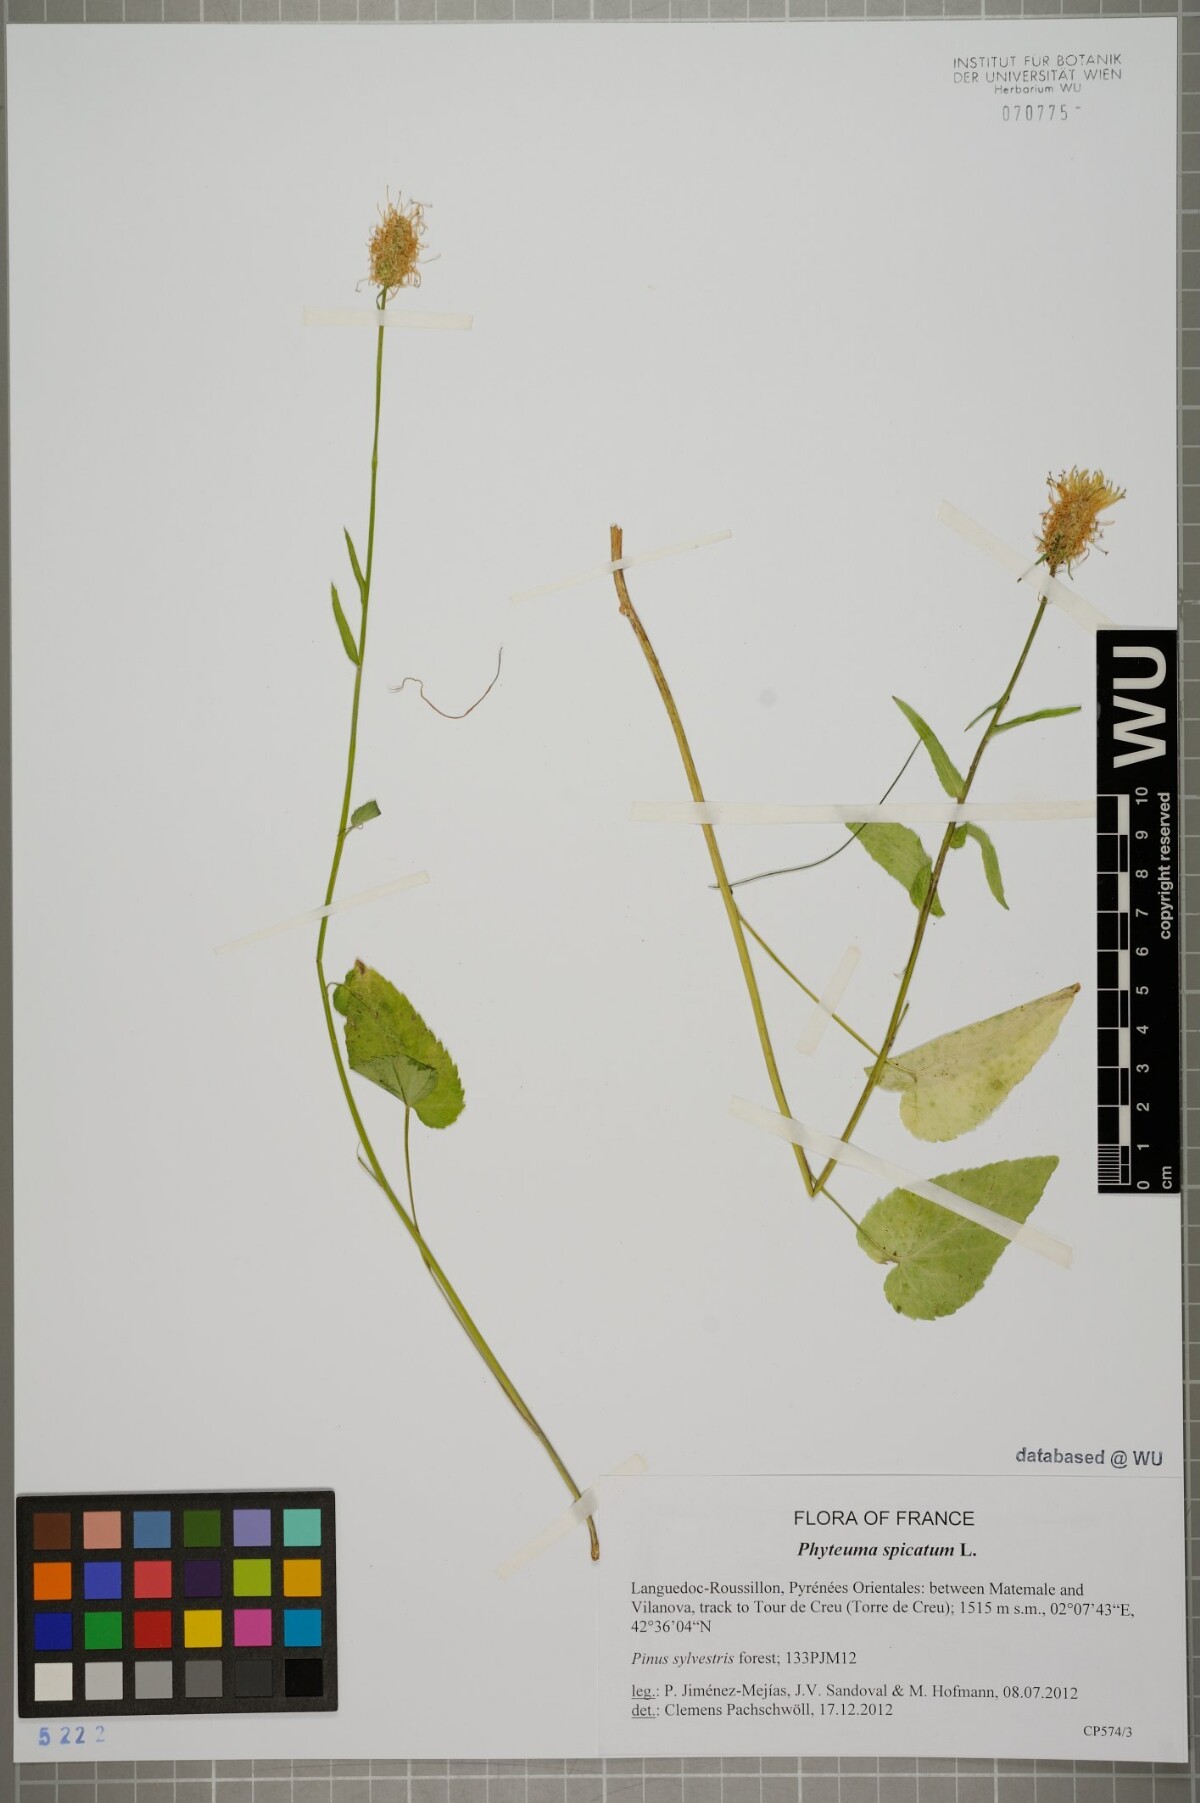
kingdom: Plantae
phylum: Tracheophyta
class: Magnoliopsida
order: Asterales
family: Campanulaceae
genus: Phyteuma
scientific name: Phyteuma spicatum
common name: Spiked rampion
